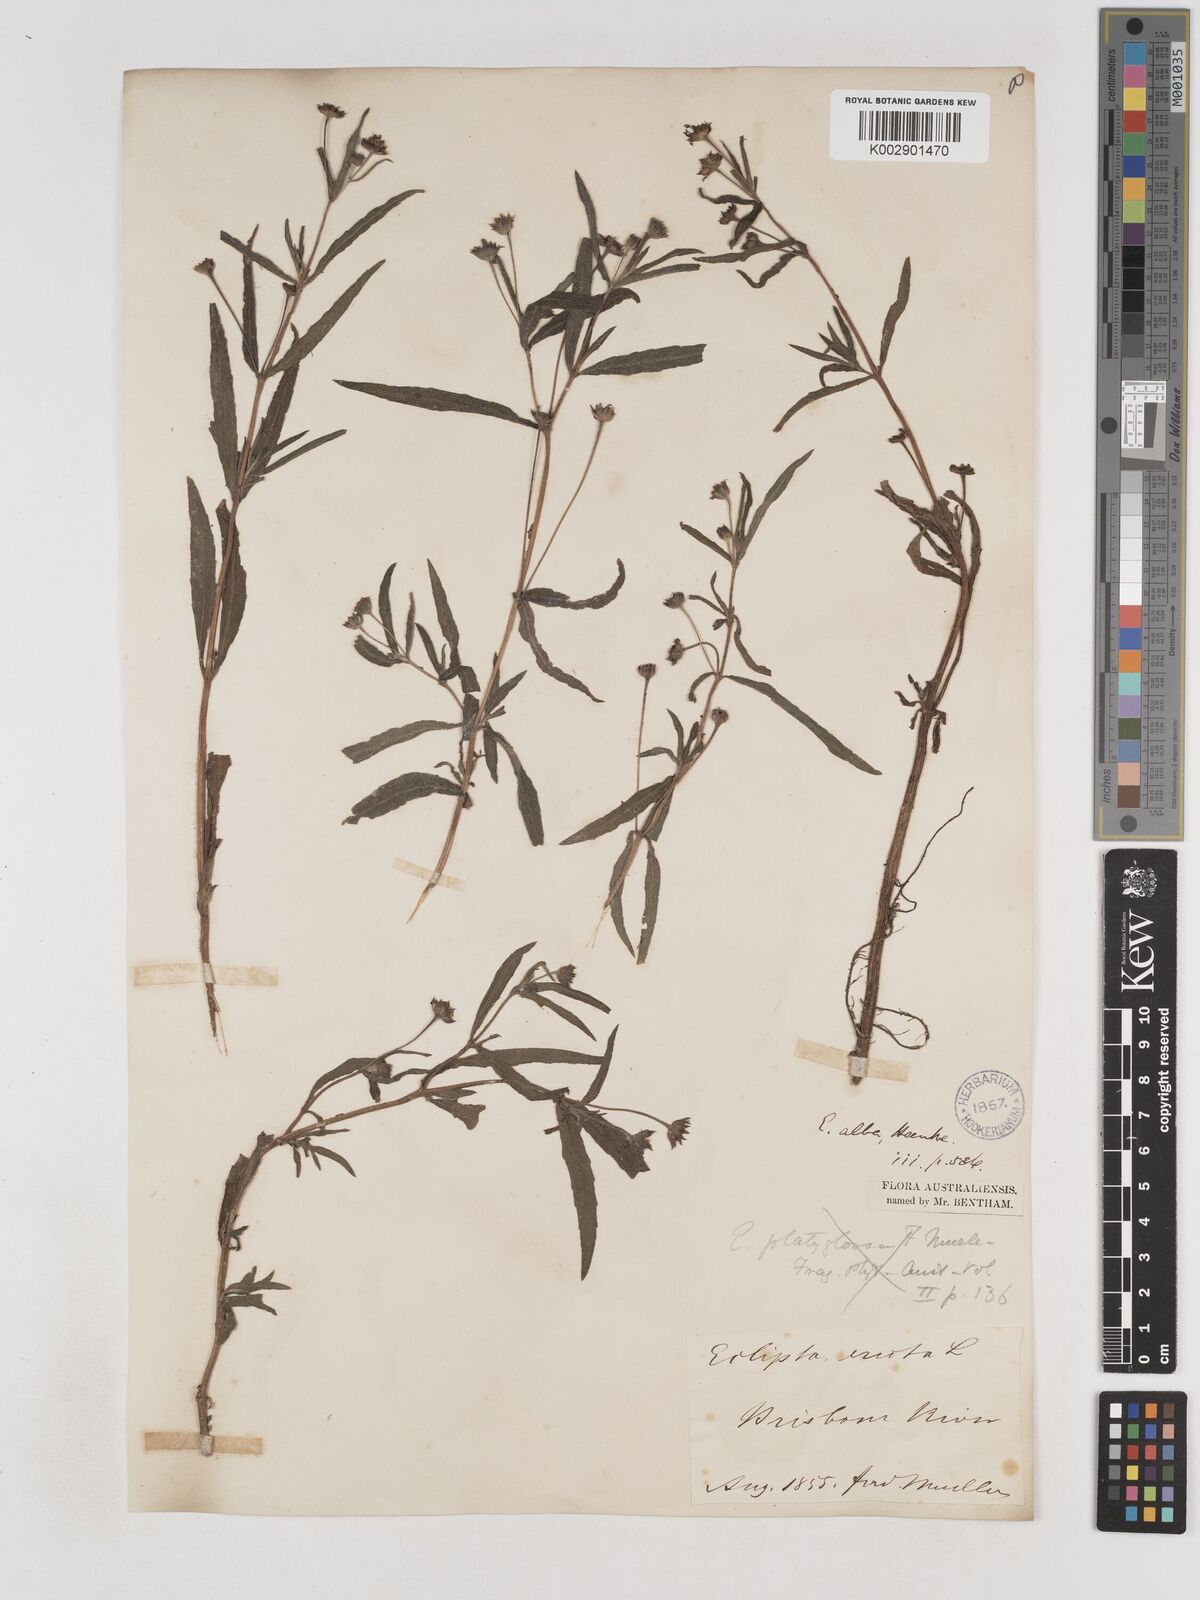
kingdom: Plantae
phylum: Tracheophyta
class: Magnoliopsida
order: Asterales
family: Asteraceae
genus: Eclipta
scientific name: Eclipta alba
